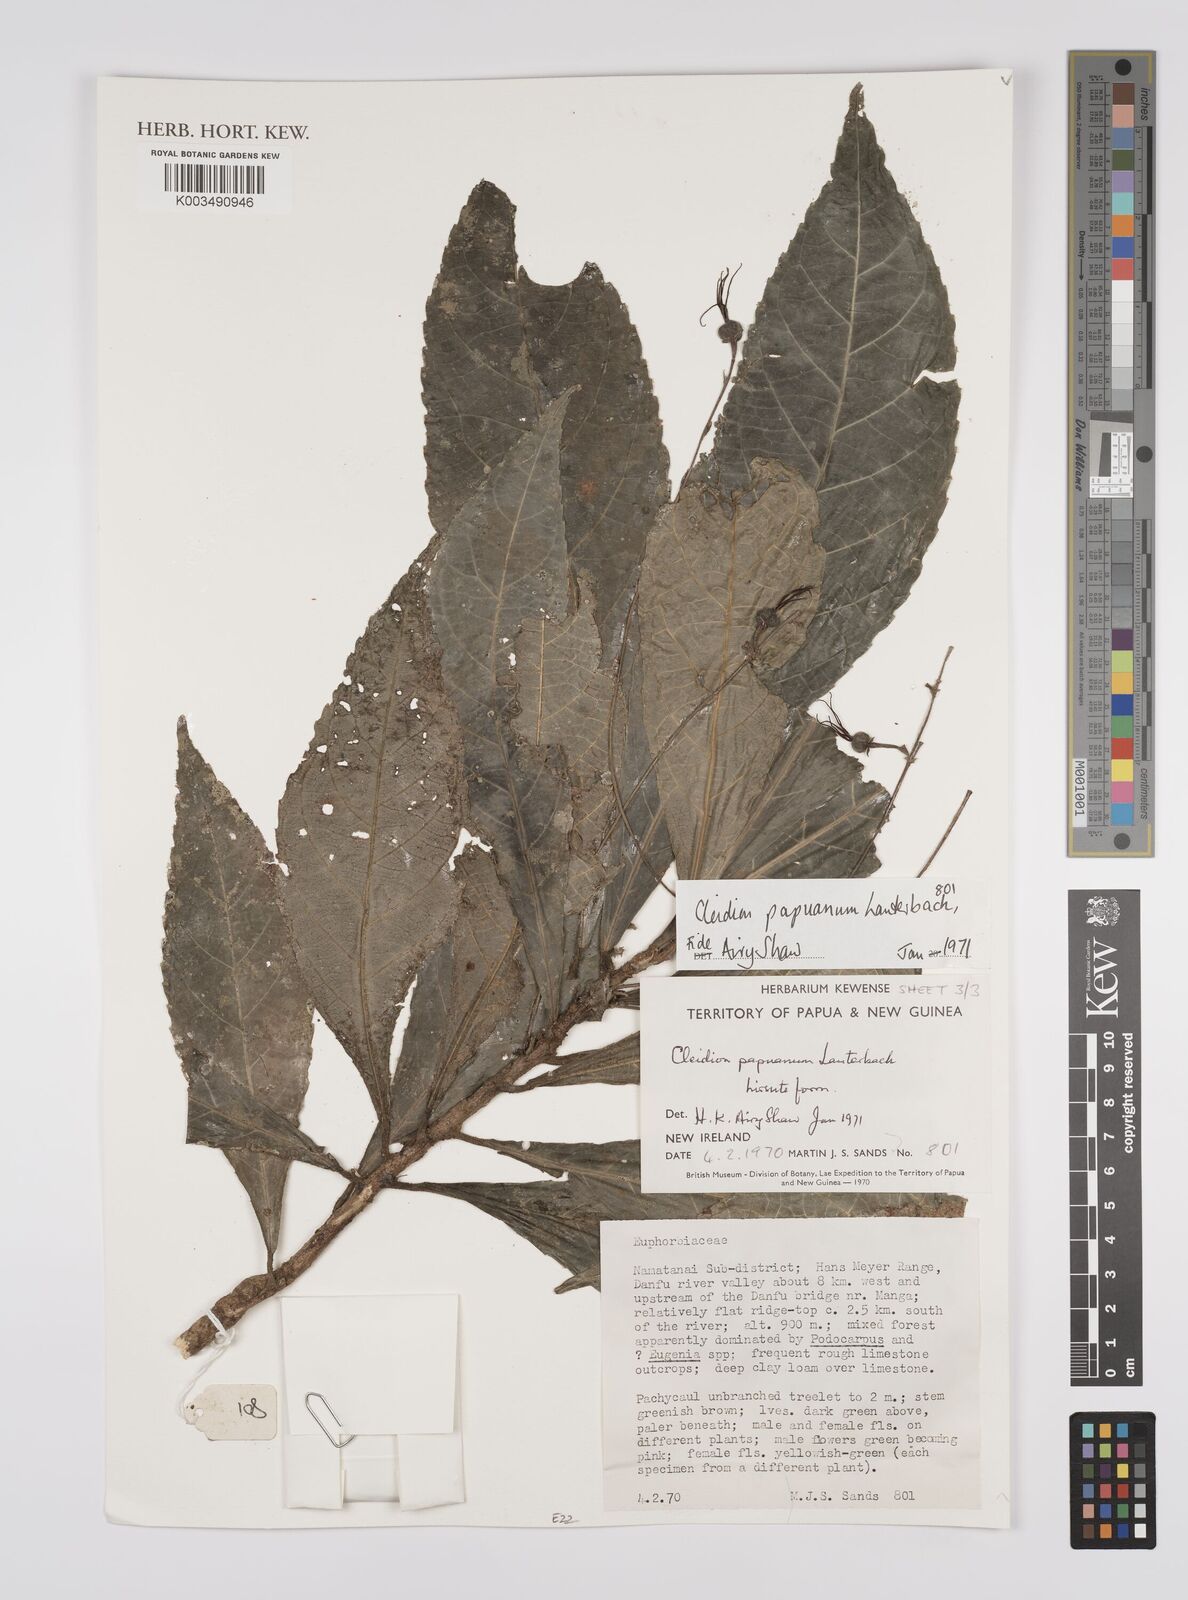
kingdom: Plantae
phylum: Tracheophyta
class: Magnoliopsida
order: Malpighiales
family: Euphorbiaceae
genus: Cleidion
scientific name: Cleidion papuanum
